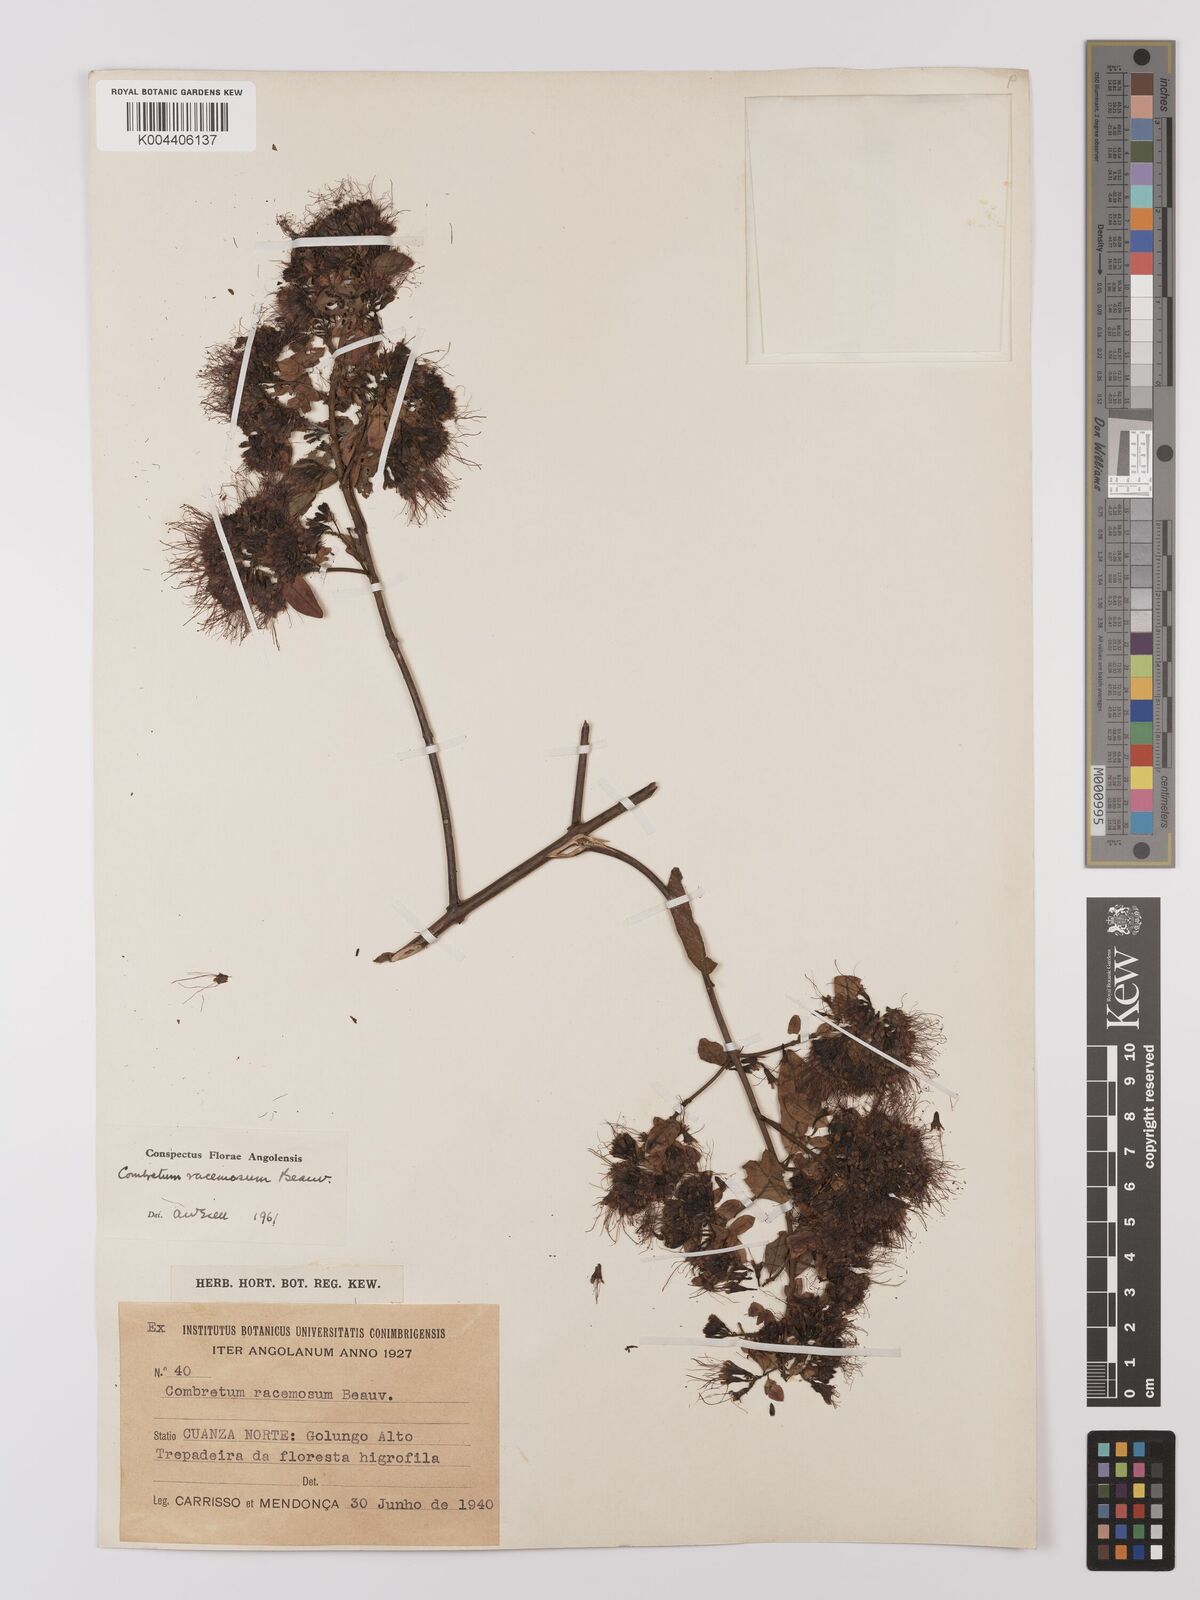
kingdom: Plantae
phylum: Tracheophyta
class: Magnoliopsida
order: Myrtales
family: Combretaceae
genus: Combretum
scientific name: Combretum racemosum
